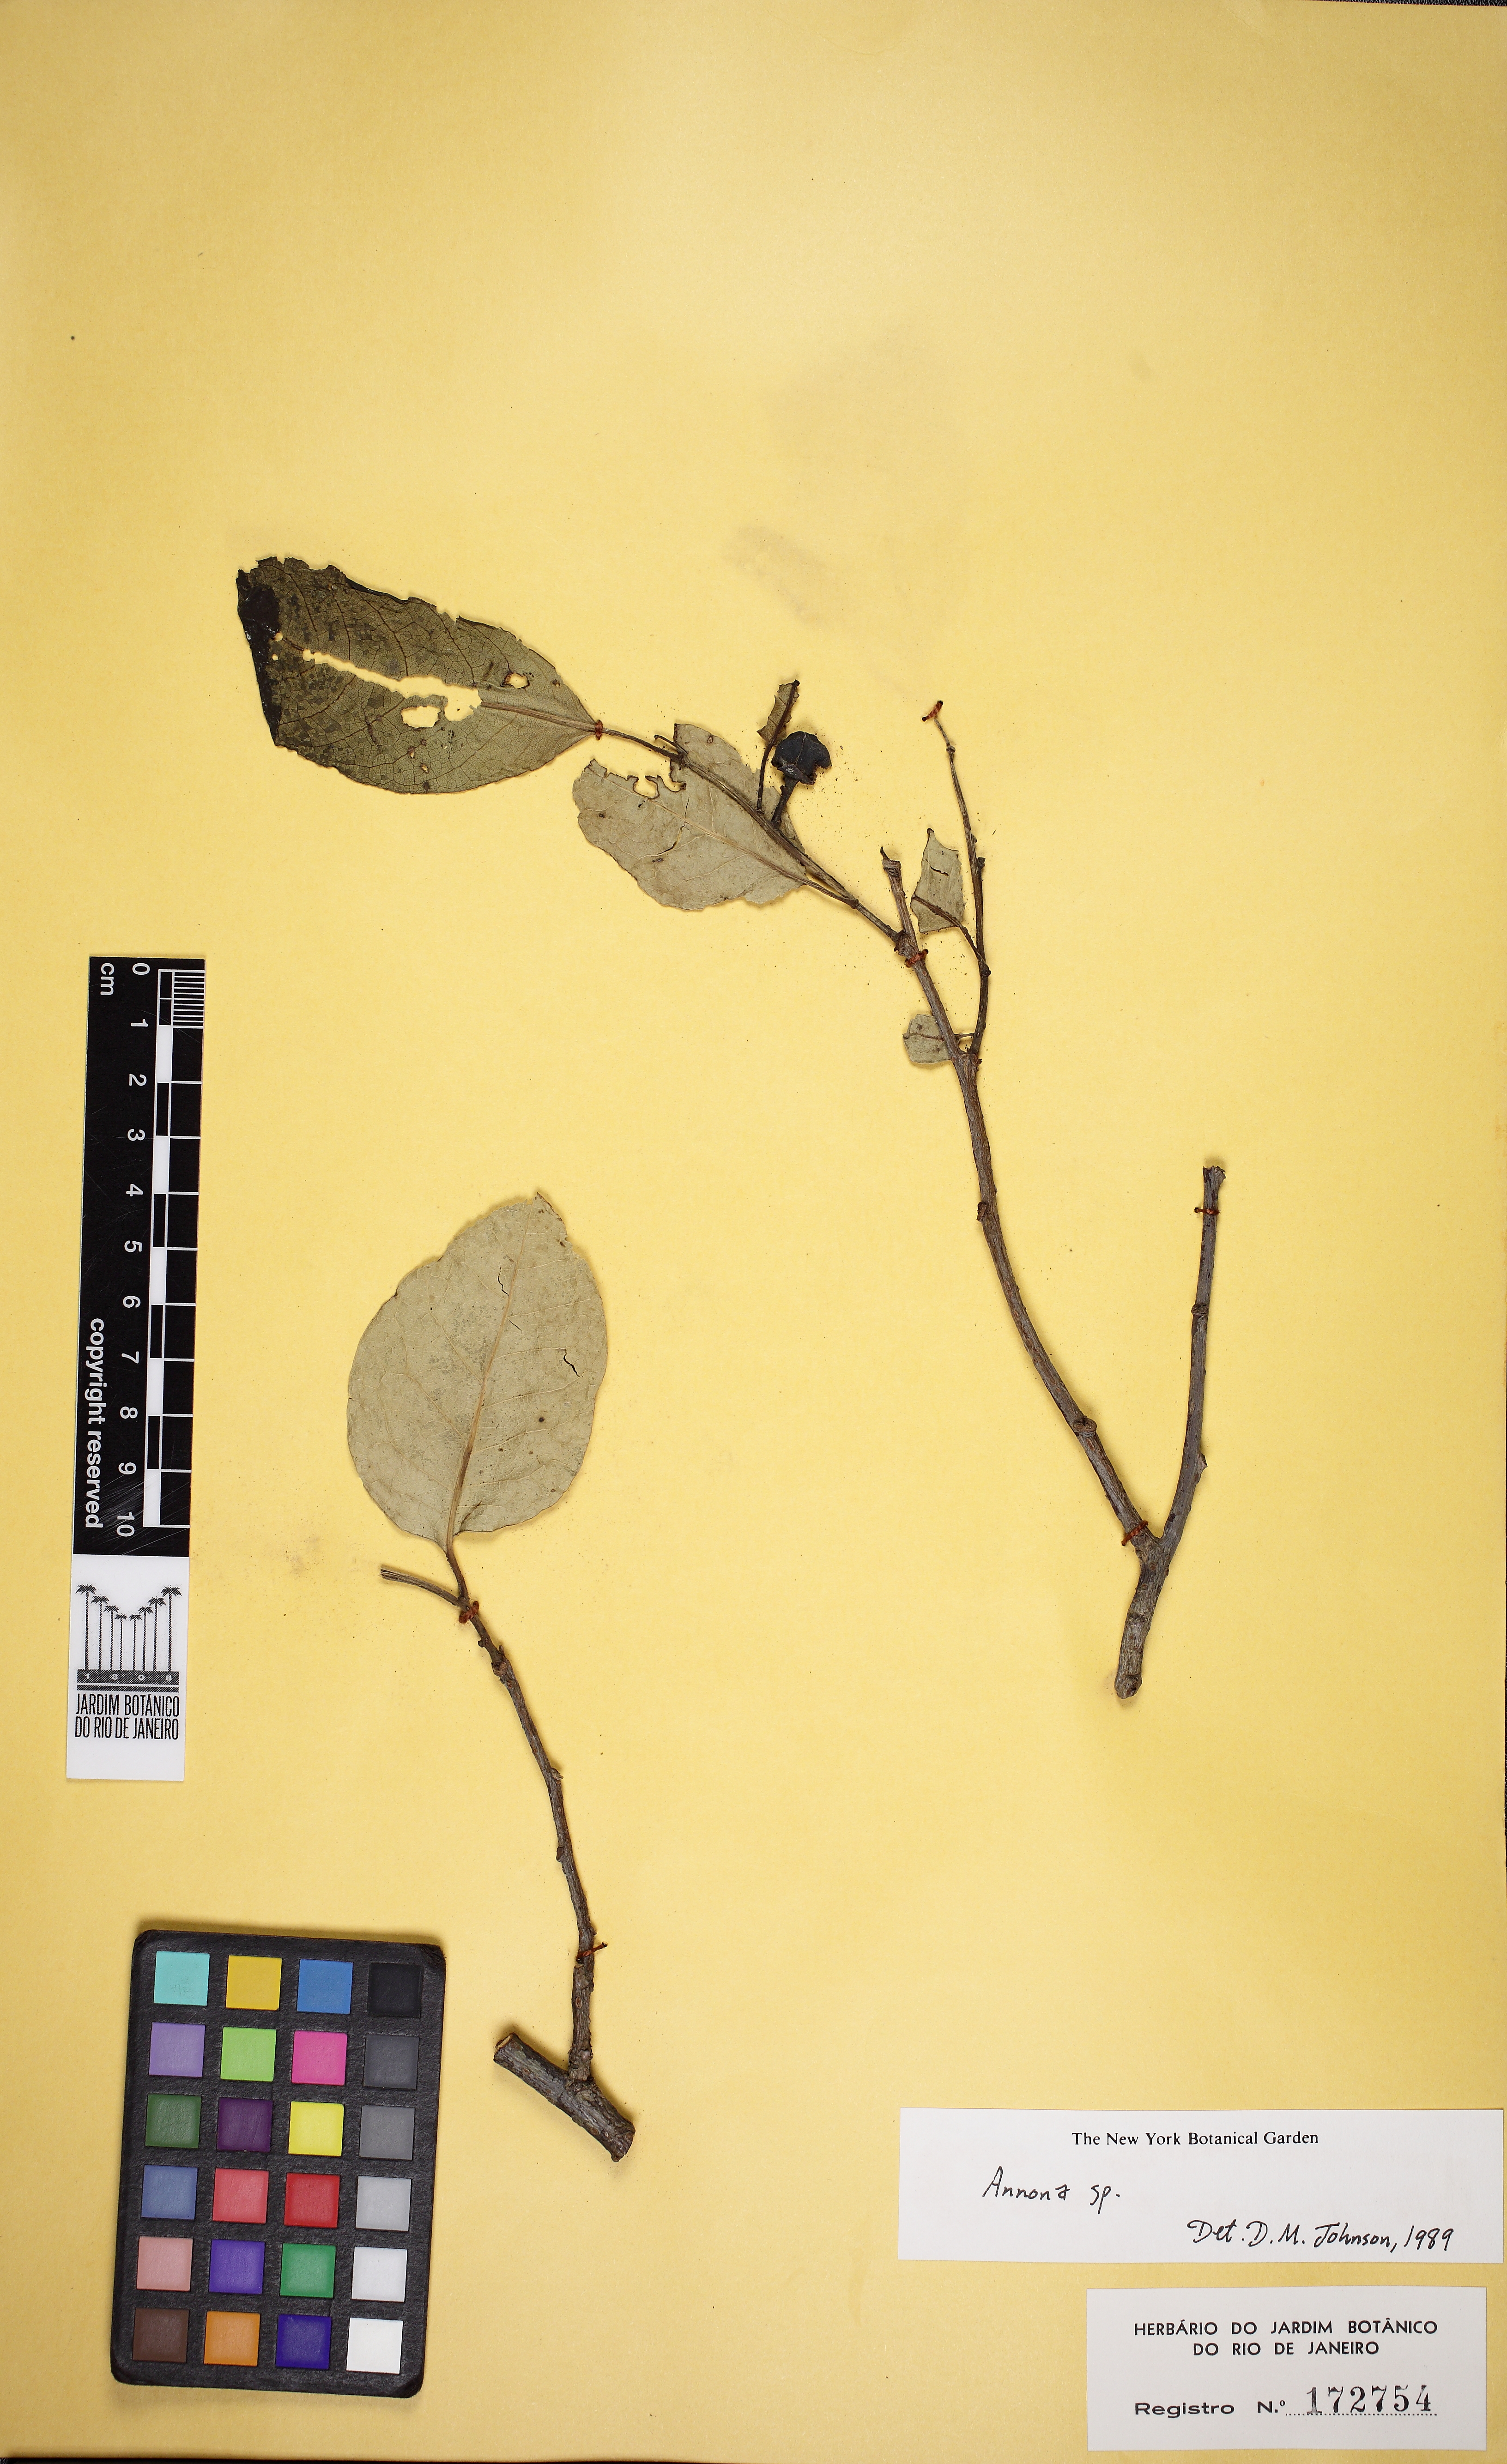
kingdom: Plantae
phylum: Tracheophyta
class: Magnoliopsida
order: Magnoliales
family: Annonaceae
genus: Annona
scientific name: Annona glabra
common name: Monkey apple
